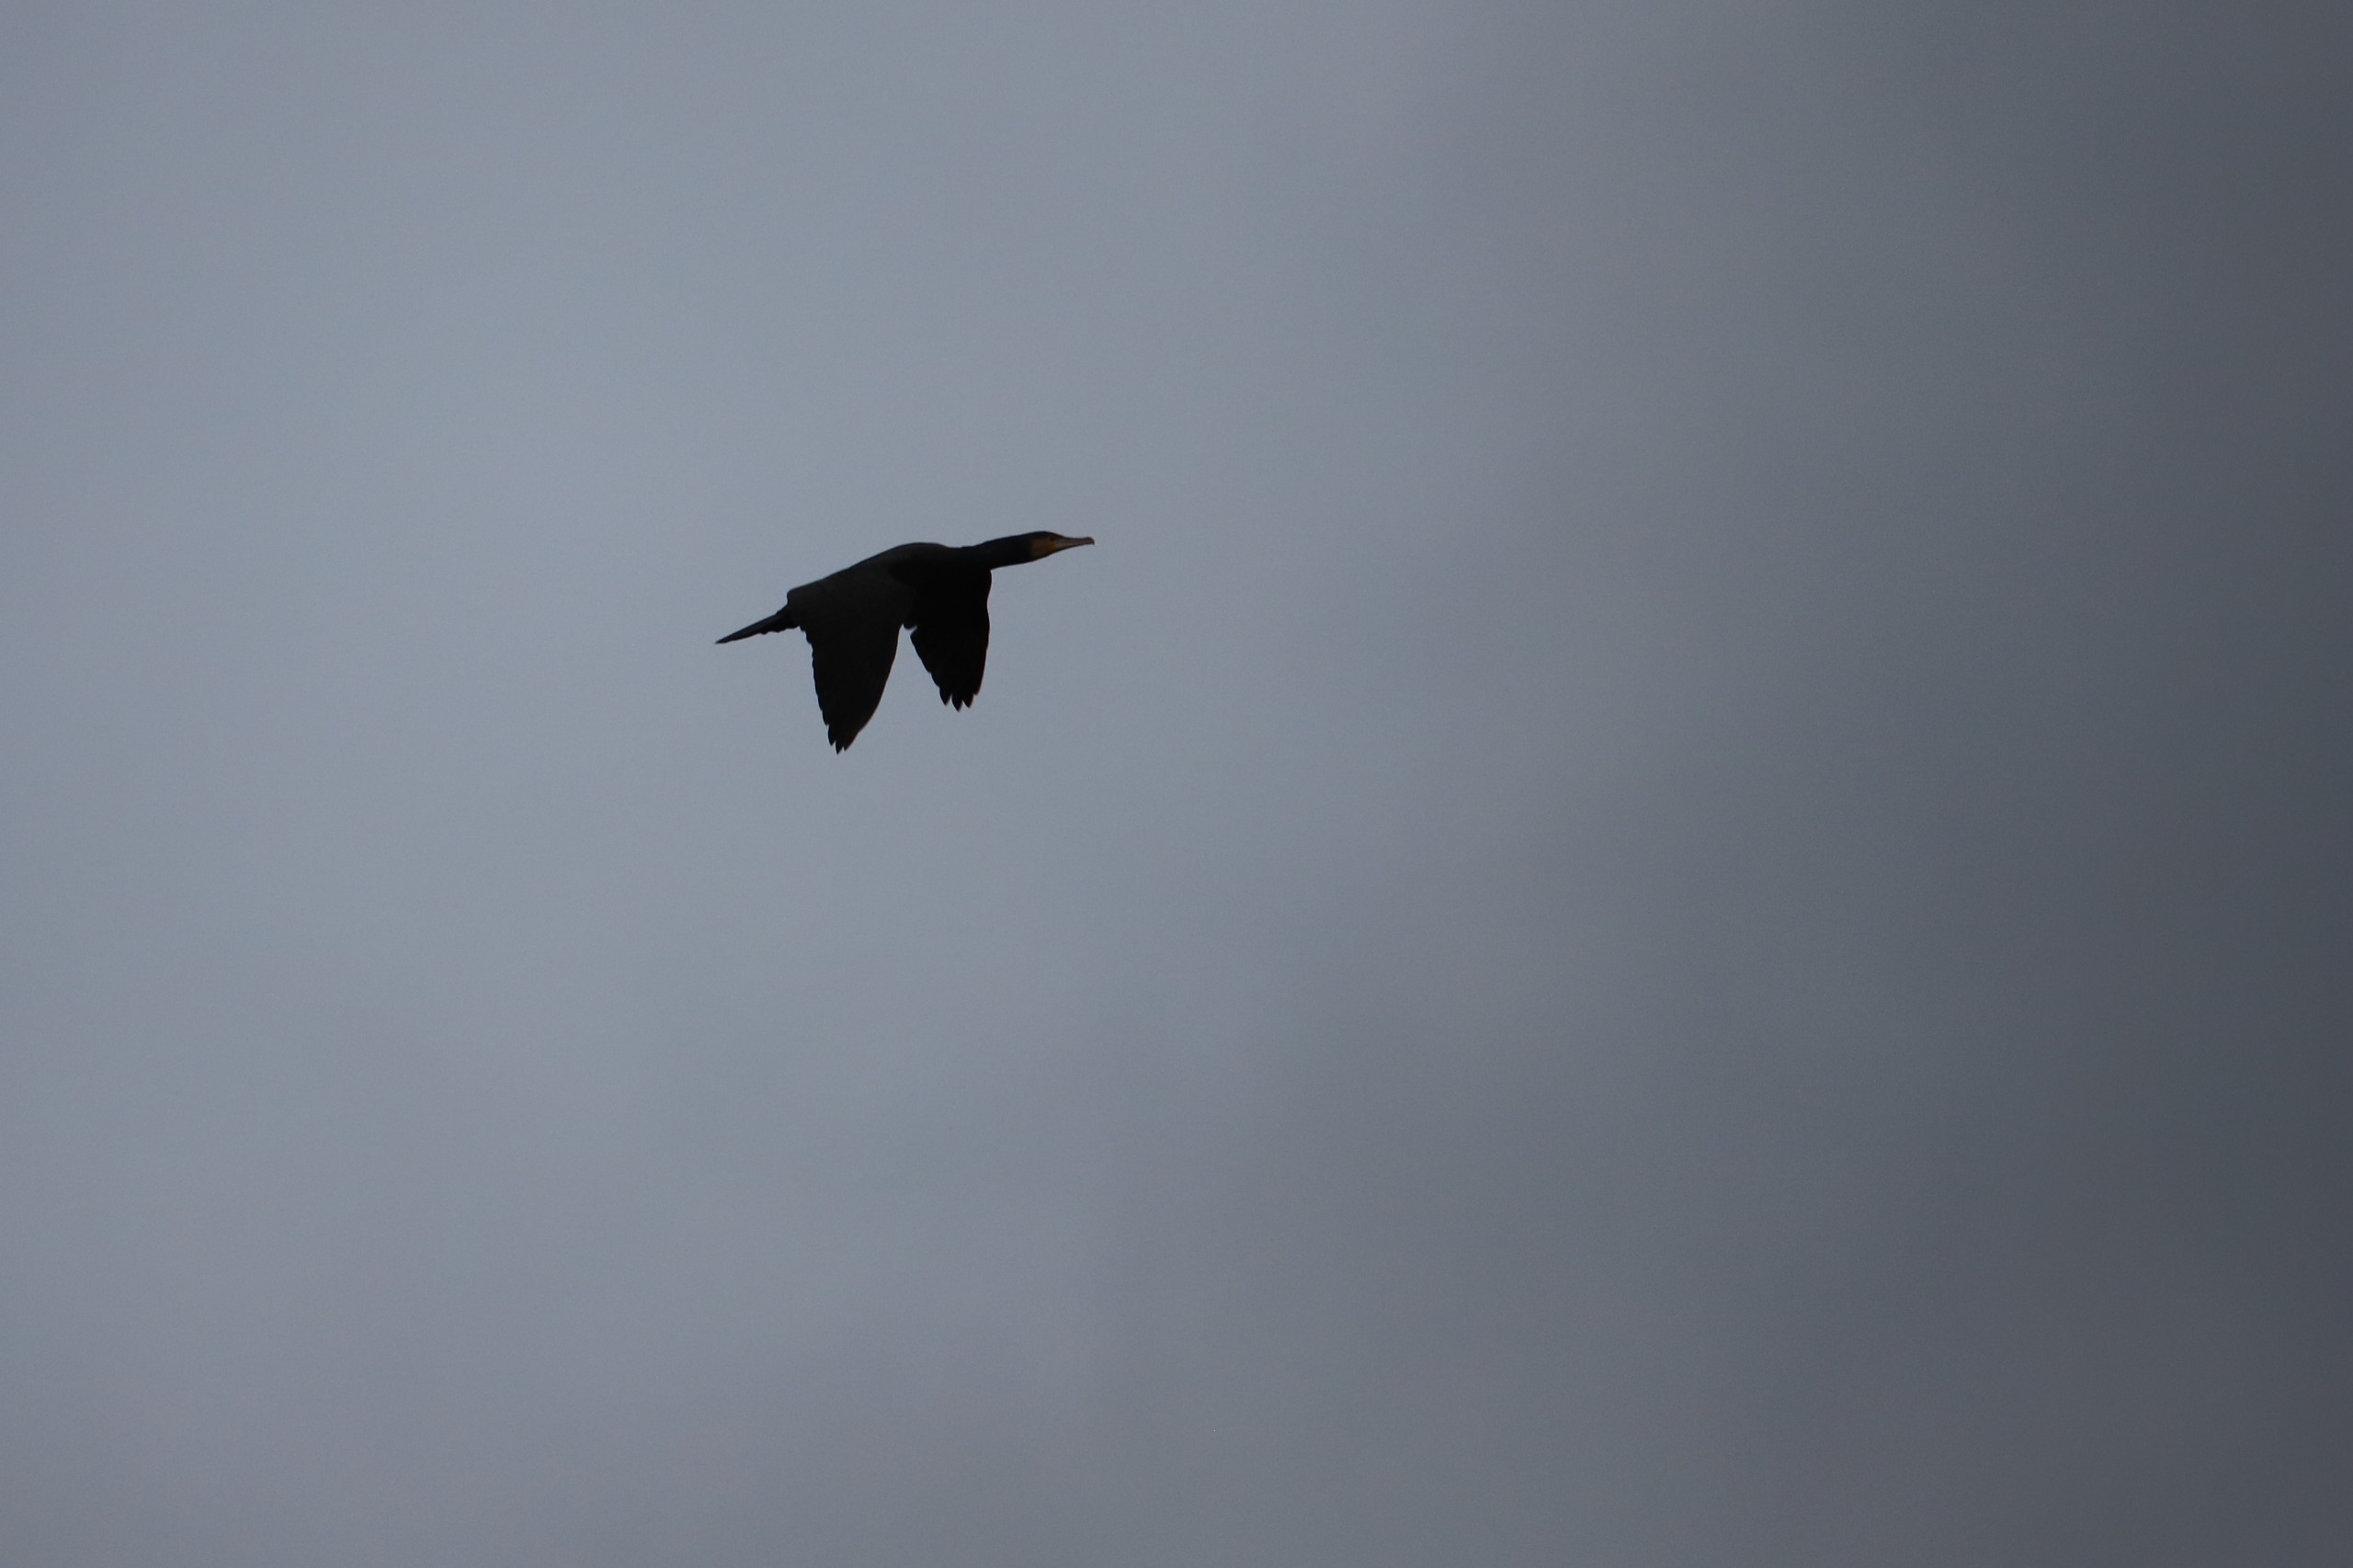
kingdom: Animalia
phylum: Chordata
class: Aves
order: Suliformes
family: Phalacrocoracidae
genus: Phalacrocorax
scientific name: Phalacrocorax carbo
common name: Skarv
